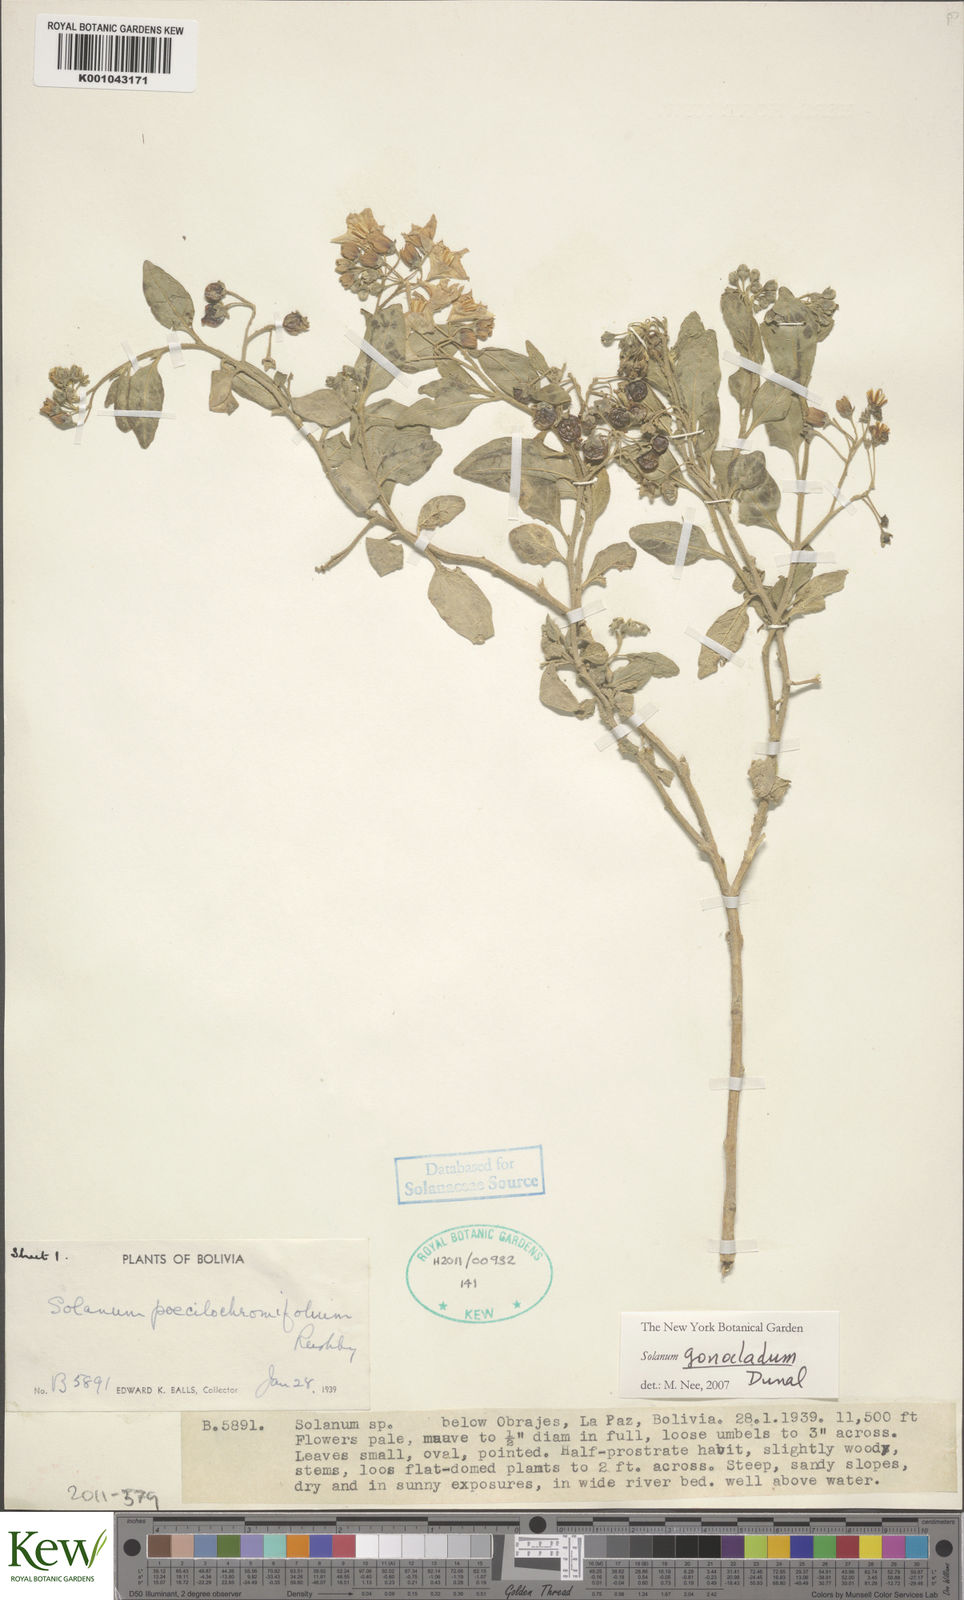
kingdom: Plantae
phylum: Tracheophyta
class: Magnoliopsida
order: Solanales
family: Solanaceae
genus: Solanum
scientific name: Solanum gonocladum
